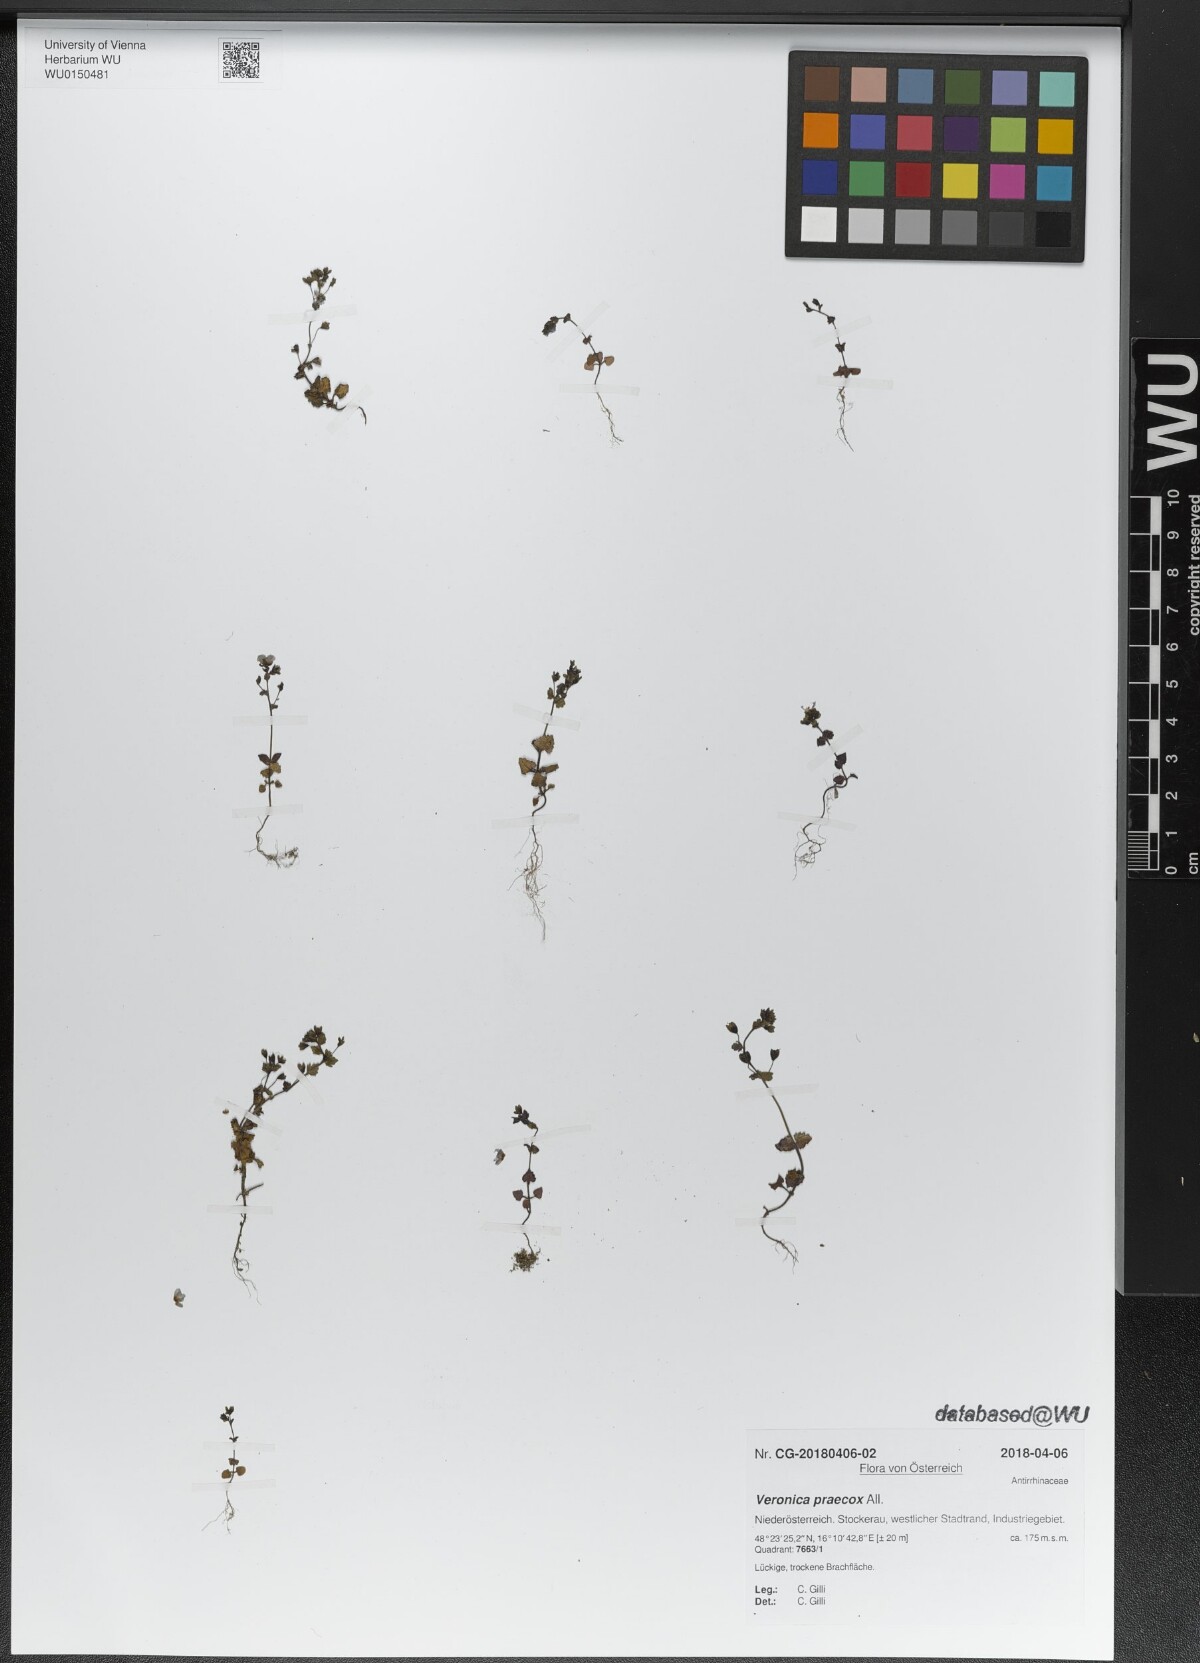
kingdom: Plantae
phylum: Tracheophyta
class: Magnoliopsida
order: Lamiales
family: Plantaginaceae
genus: Veronica
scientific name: Veronica praecox
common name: Breckland speedwell
